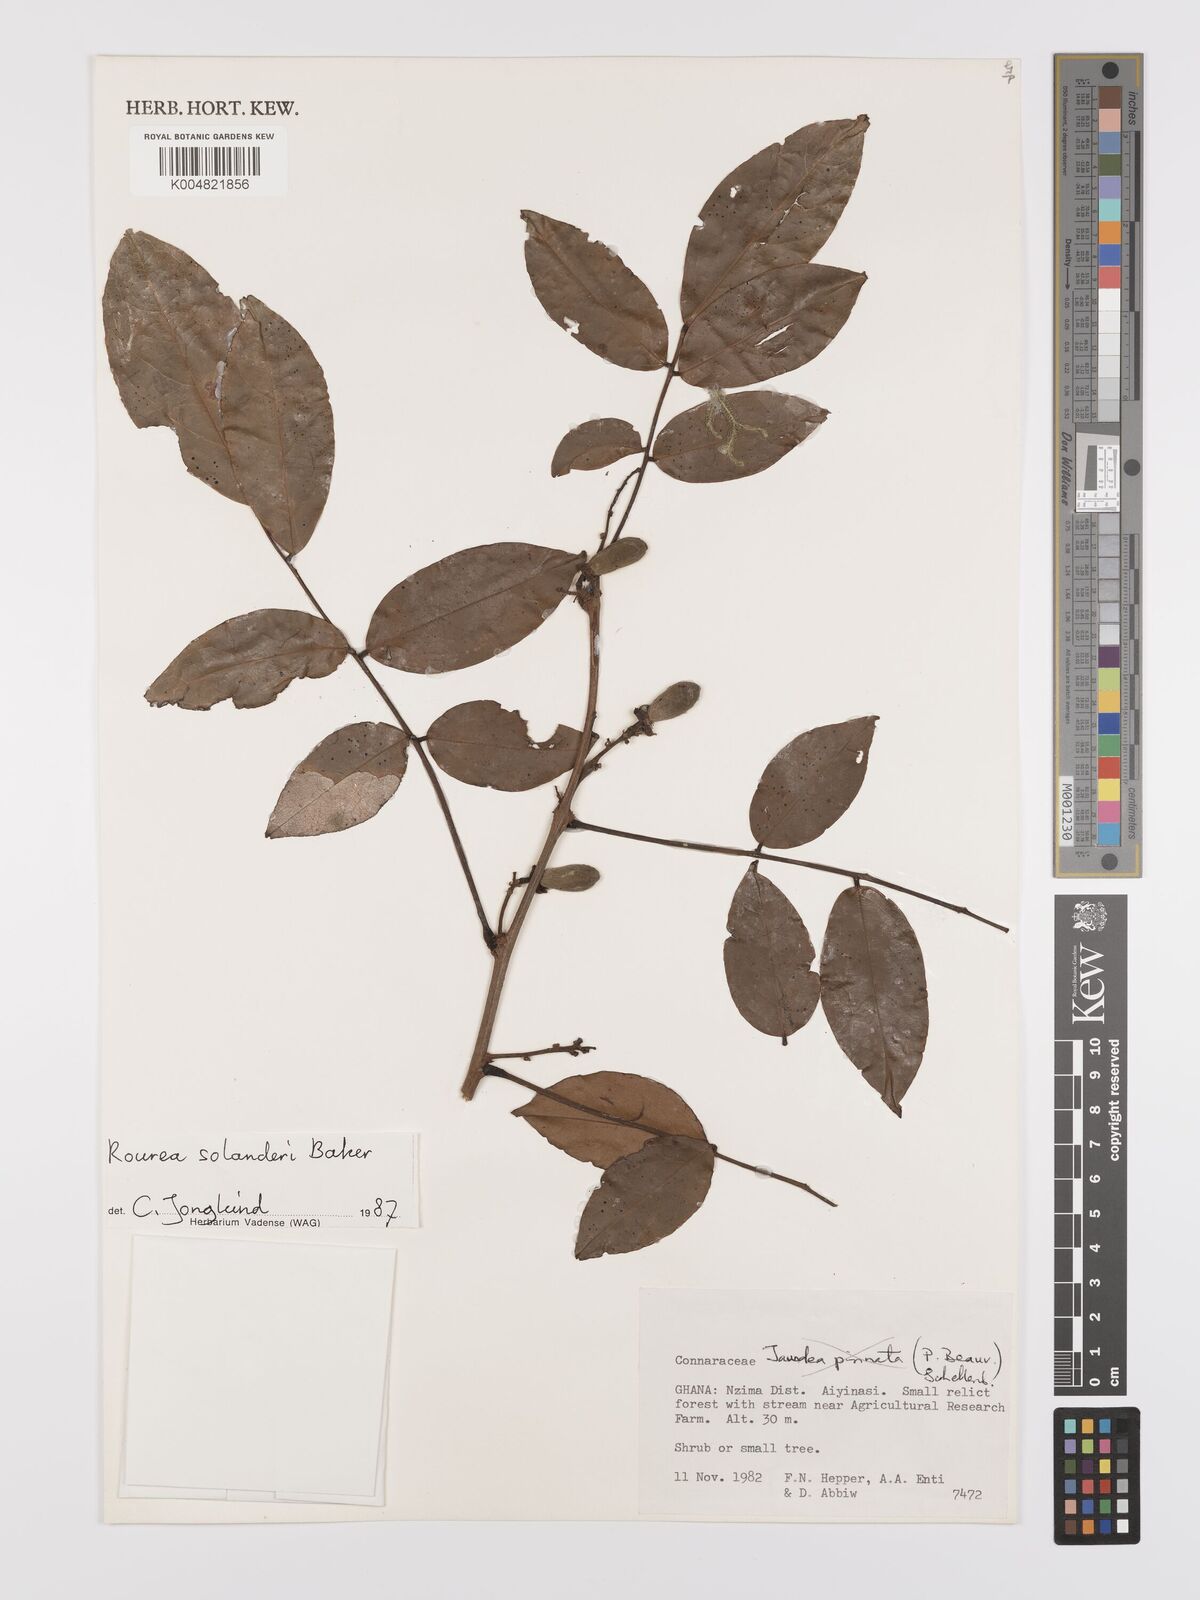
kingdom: Plantae
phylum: Tracheophyta
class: Magnoliopsida
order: Oxalidales
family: Connaraceae
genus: Rourea
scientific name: Rourea pinnata
